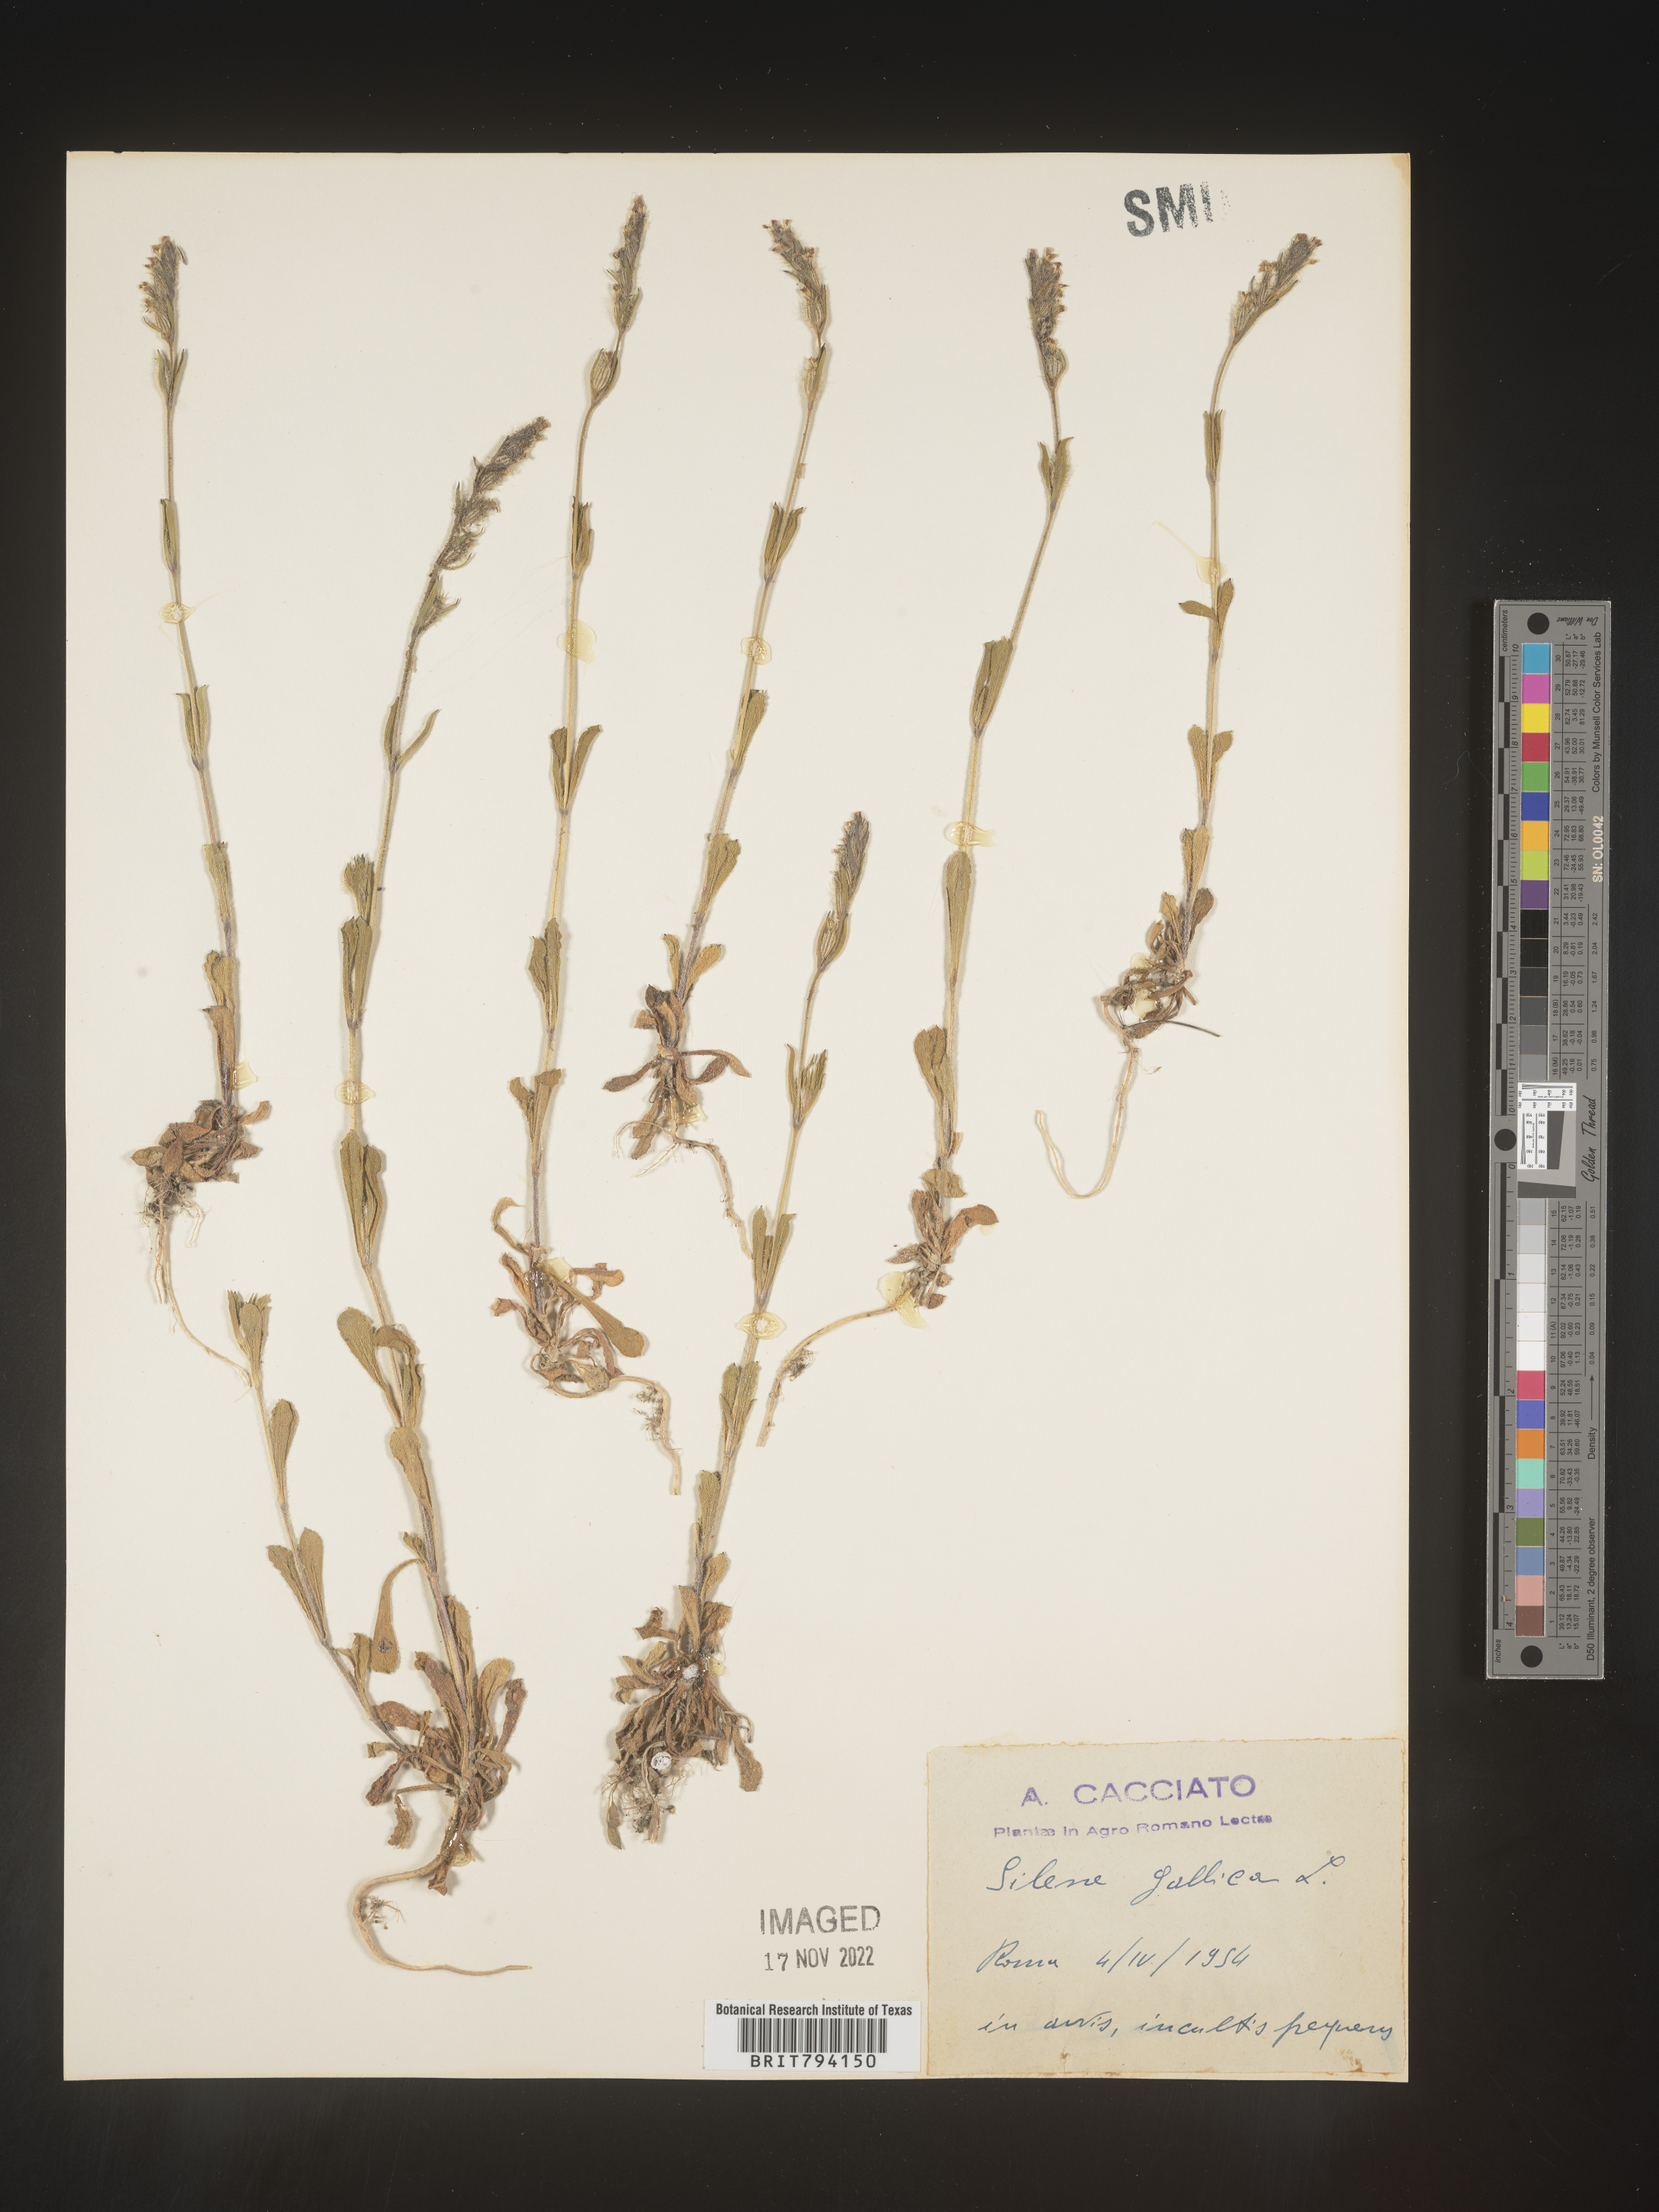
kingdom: Plantae
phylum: Tracheophyta
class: Magnoliopsida
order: Caryophyllales
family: Caryophyllaceae
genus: Silene
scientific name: Silene gallica
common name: Small-flowered catchfly
